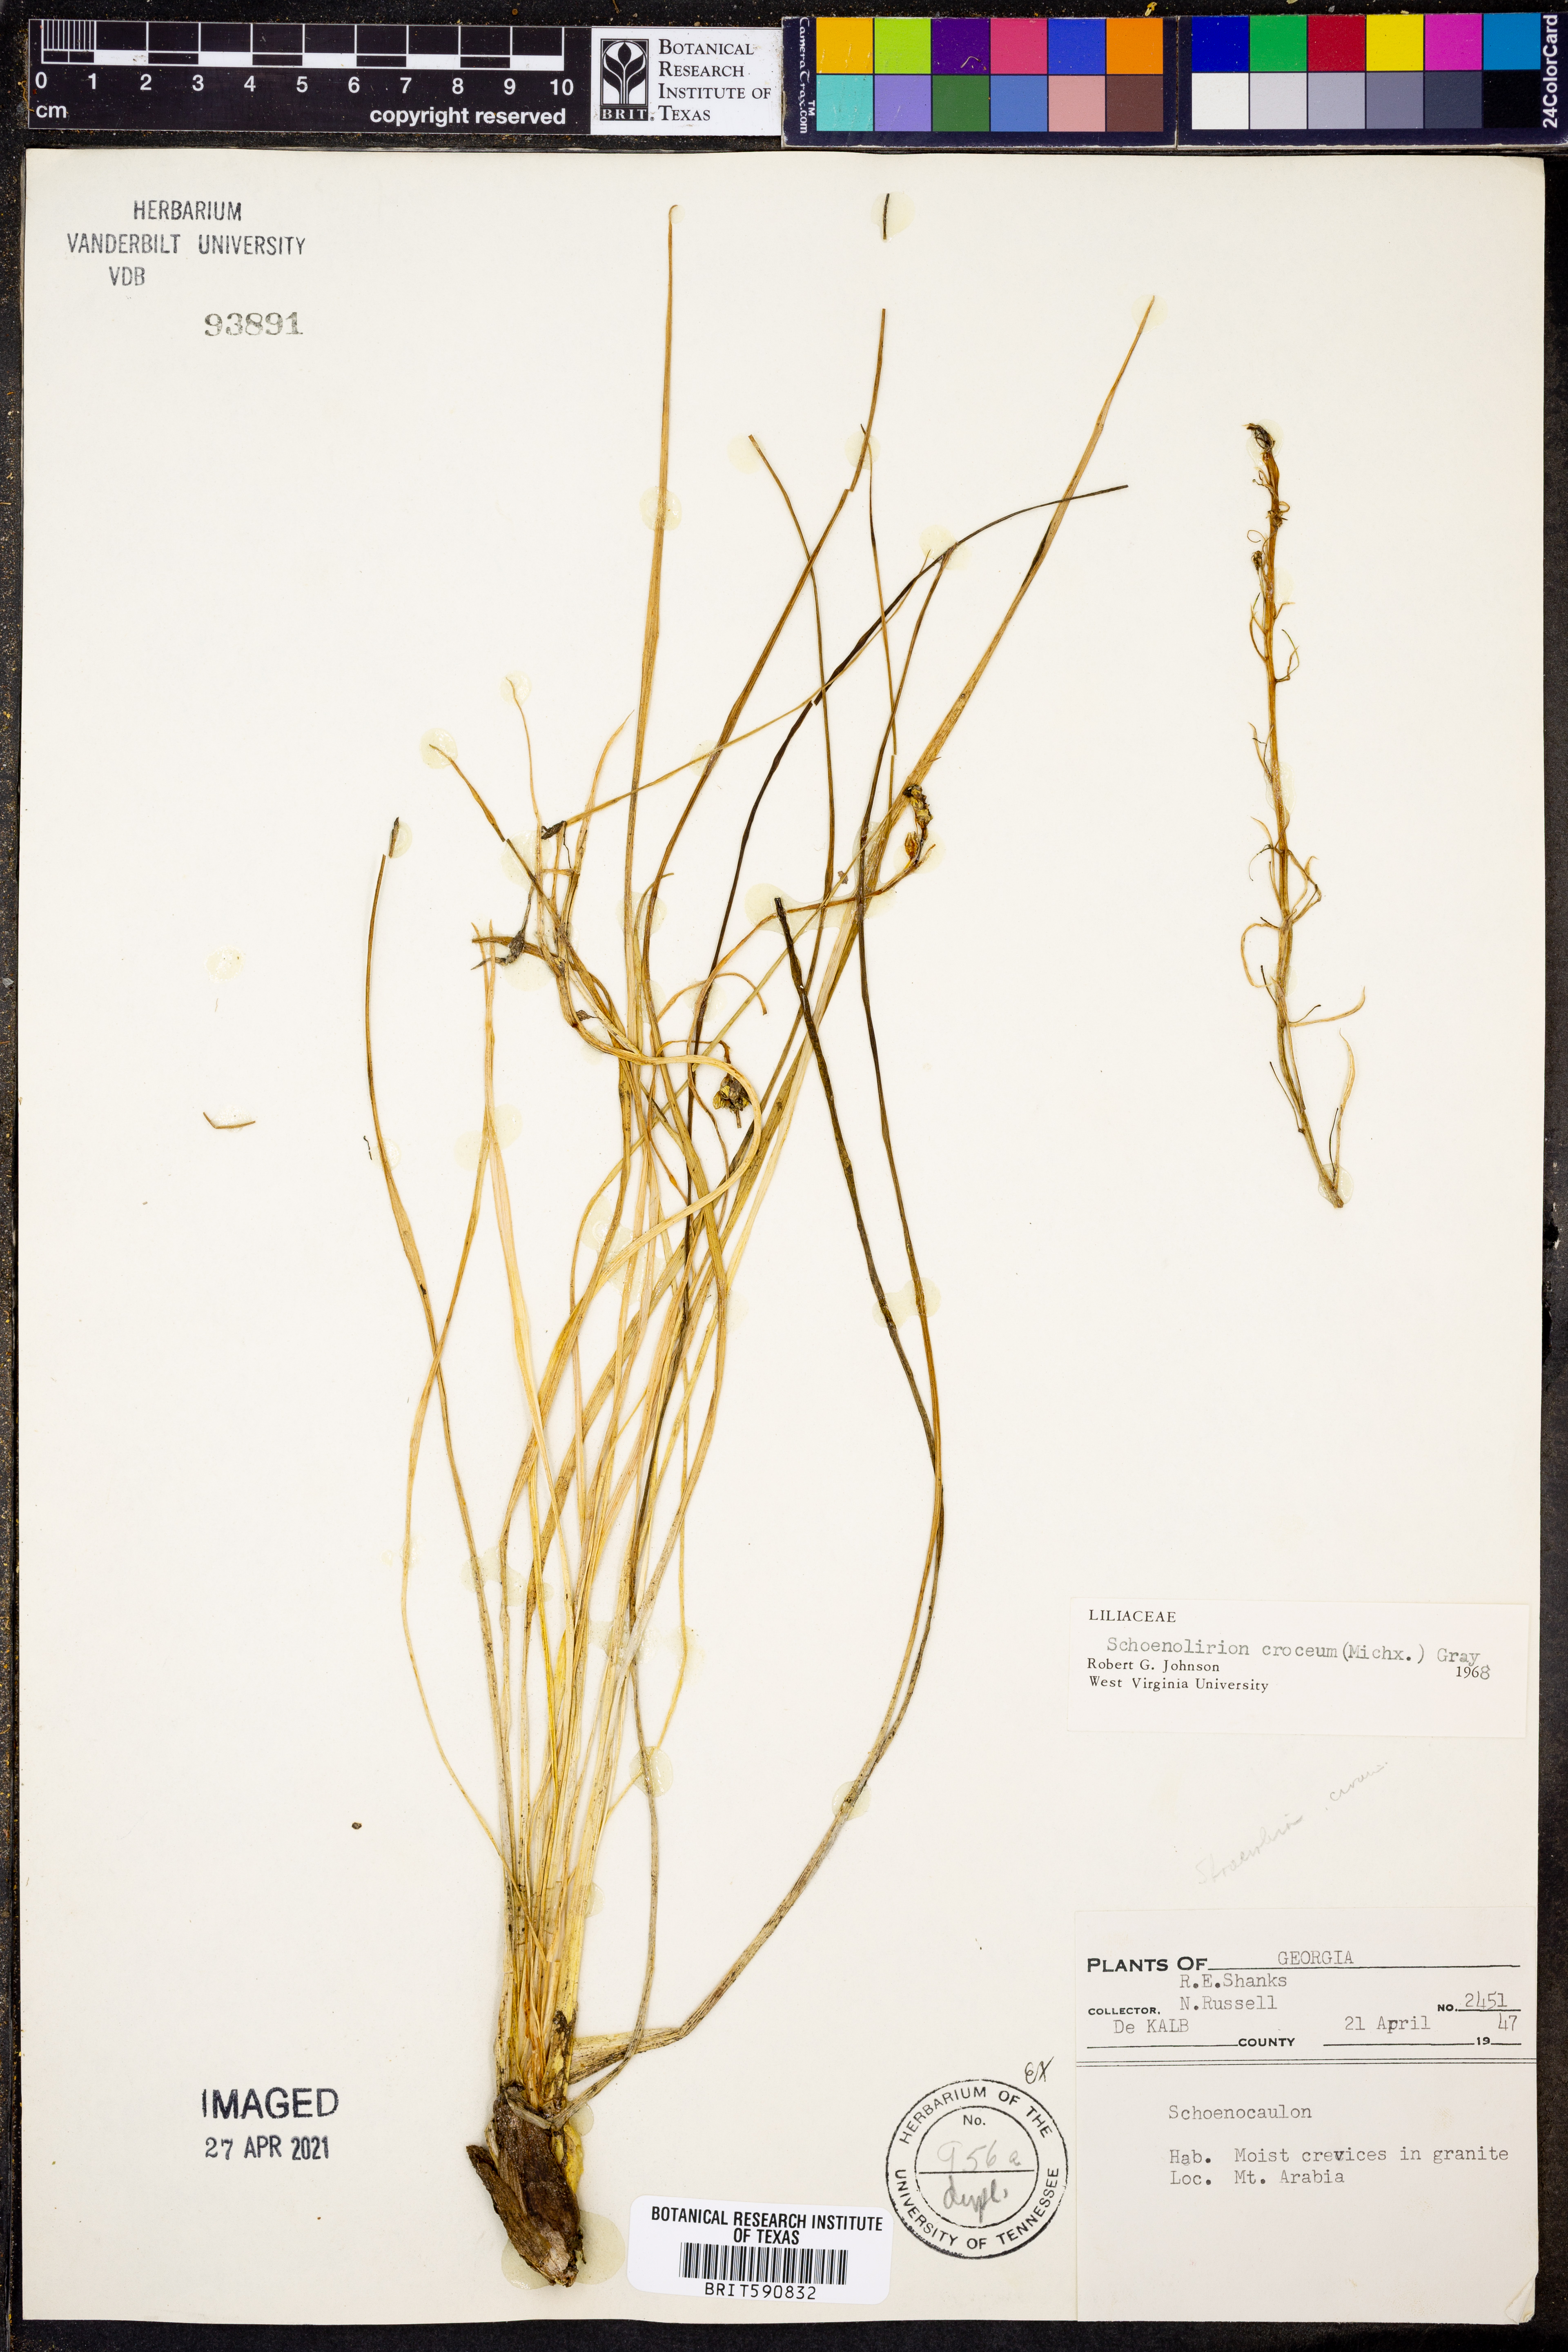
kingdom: Plantae
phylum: Tracheophyta
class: Liliopsida
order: Asparagales
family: Asparagaceae
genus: Schoenolirion
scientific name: Schoenolirion croceum
